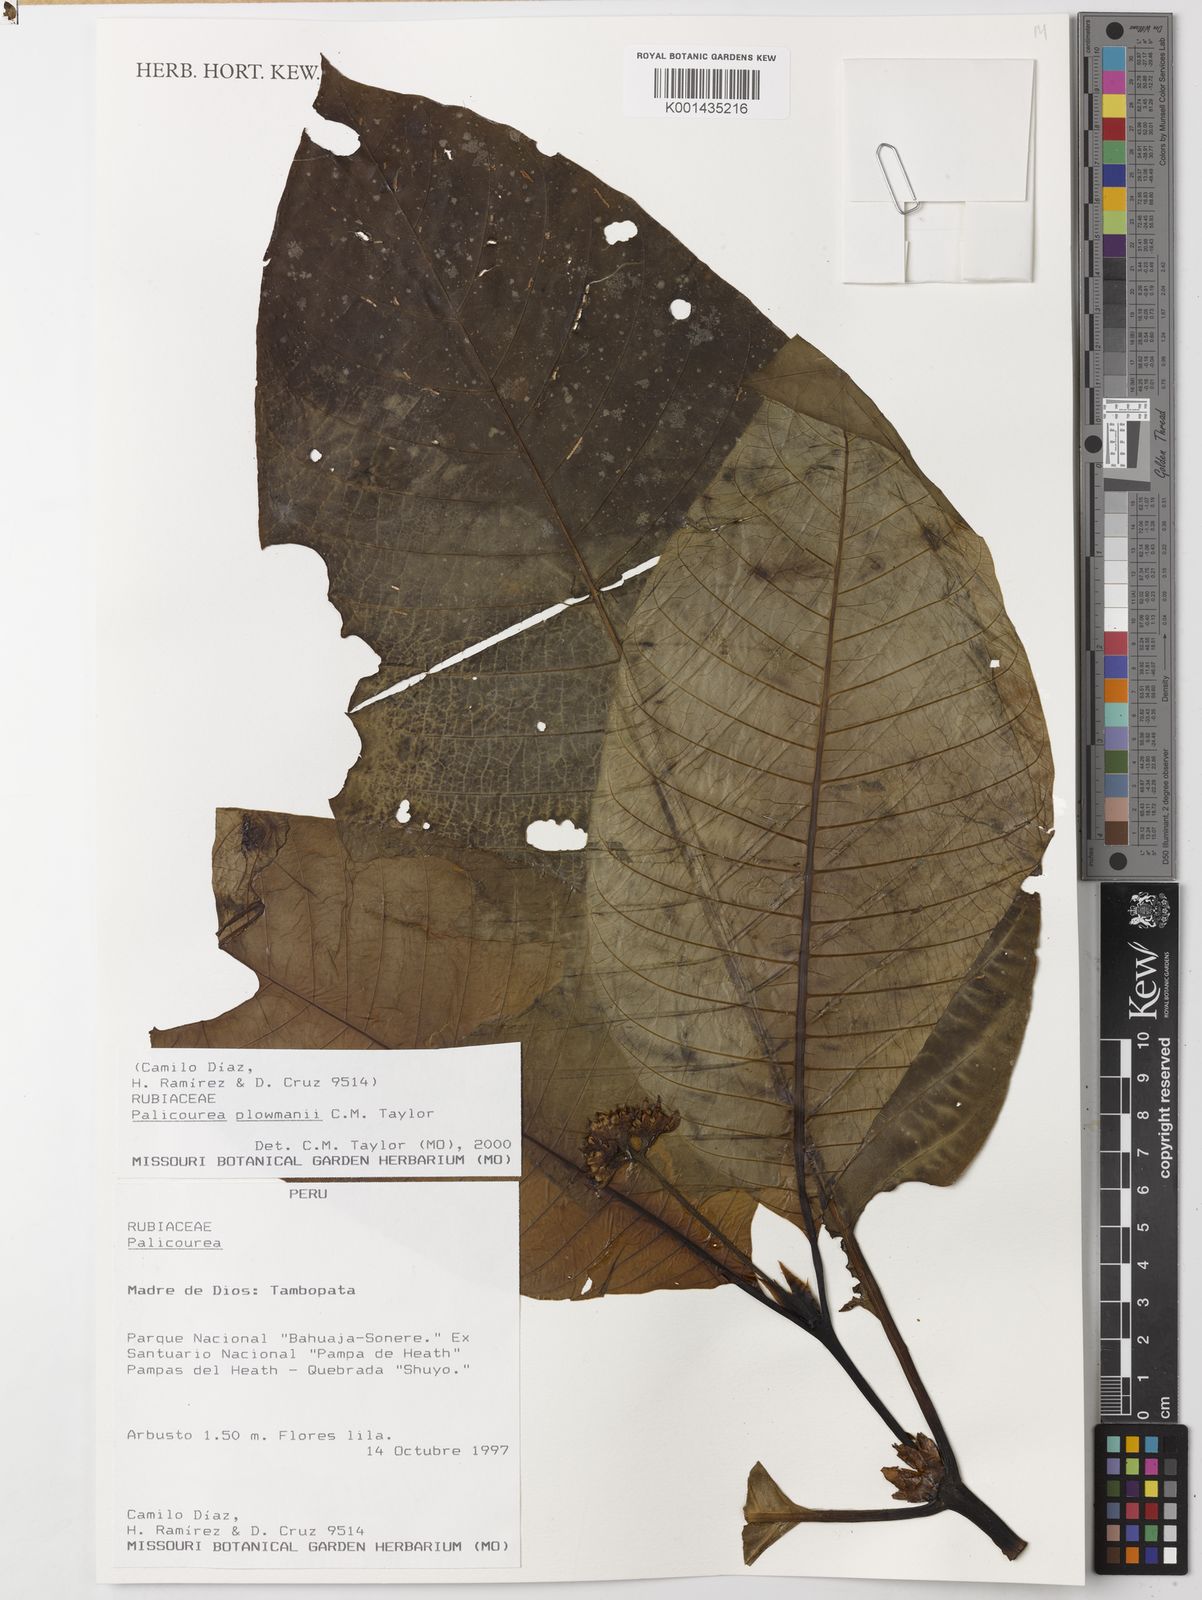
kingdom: Plantae
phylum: Tracheophyta
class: Magnoliopsida
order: Gentianales
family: Rubiaceae
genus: Palicourea
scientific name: Palicourea paulina
